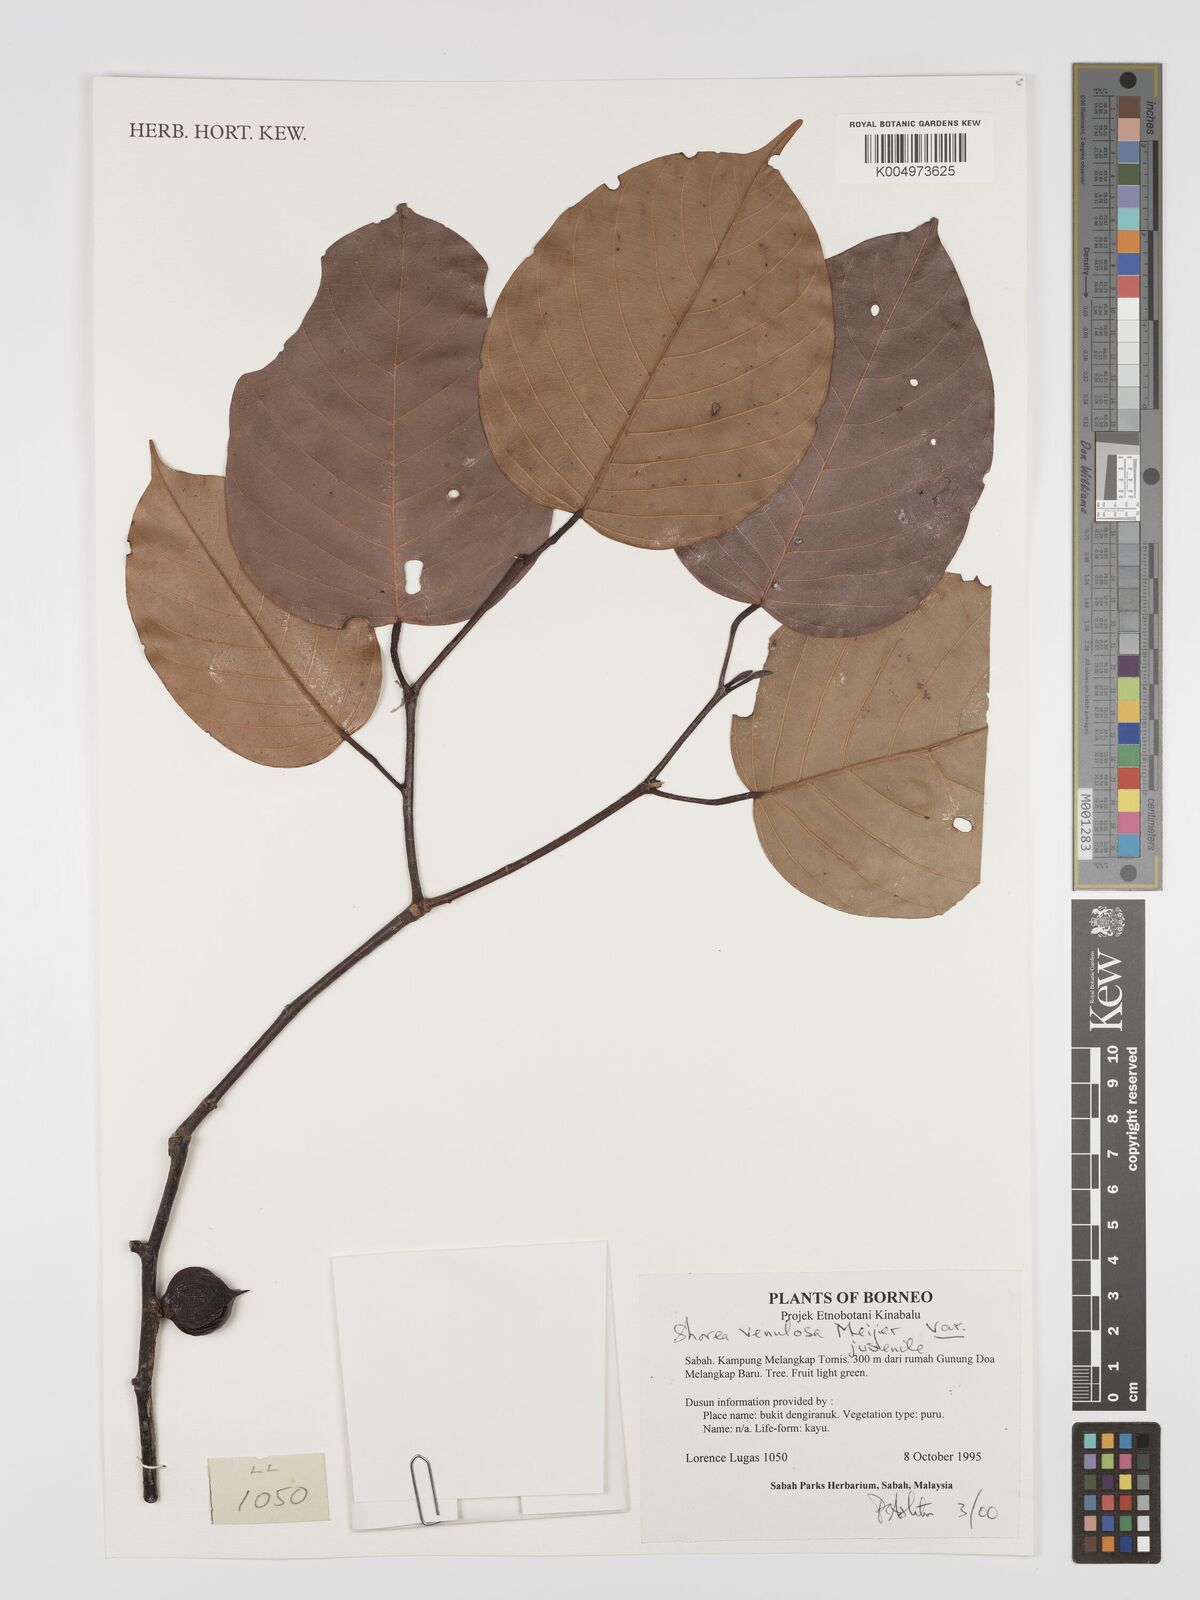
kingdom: Plantae
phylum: Tracheophyta
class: Magnoliopsida
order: Malvales
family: Dipterocarpaceae
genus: Shorea
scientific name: Shorea venulosa
